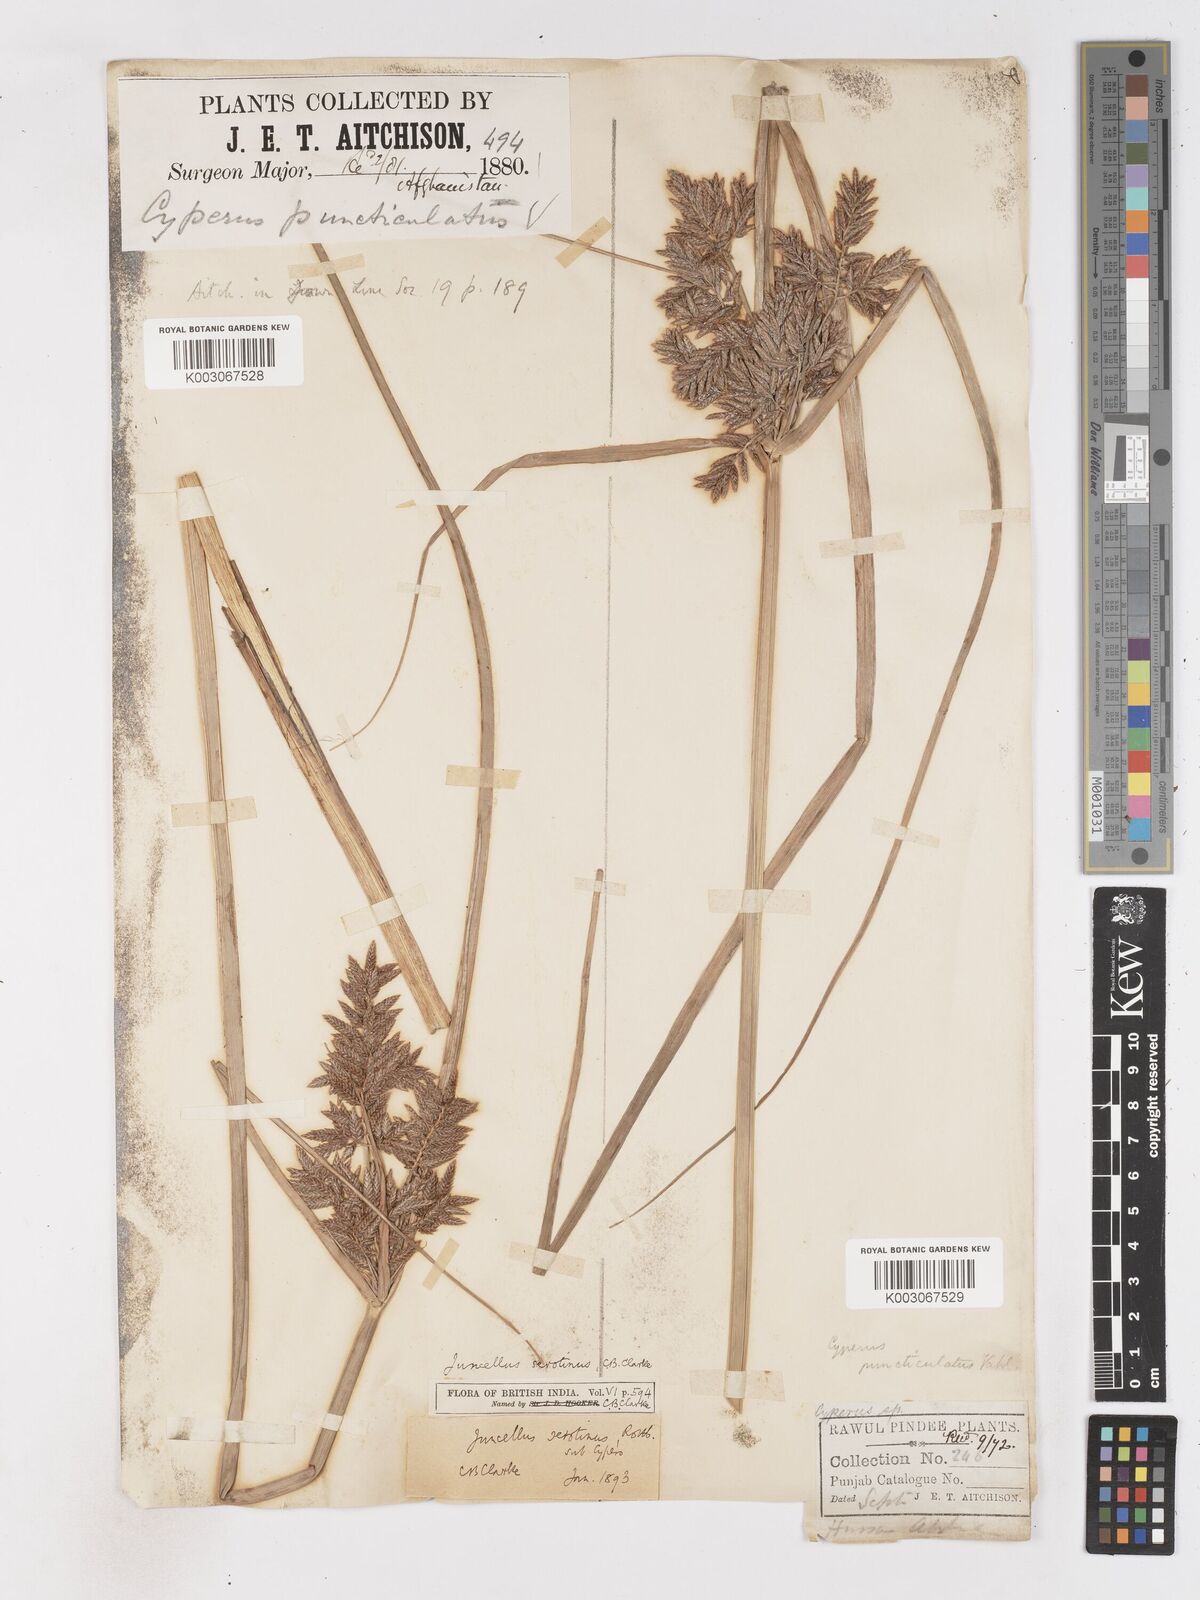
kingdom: Plantae
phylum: Tracheophyta
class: Liliopsida
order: Poales
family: Cyperaceae
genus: Cyperus
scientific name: Cyperus serotinus
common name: Tidalmarsh flatsedge
